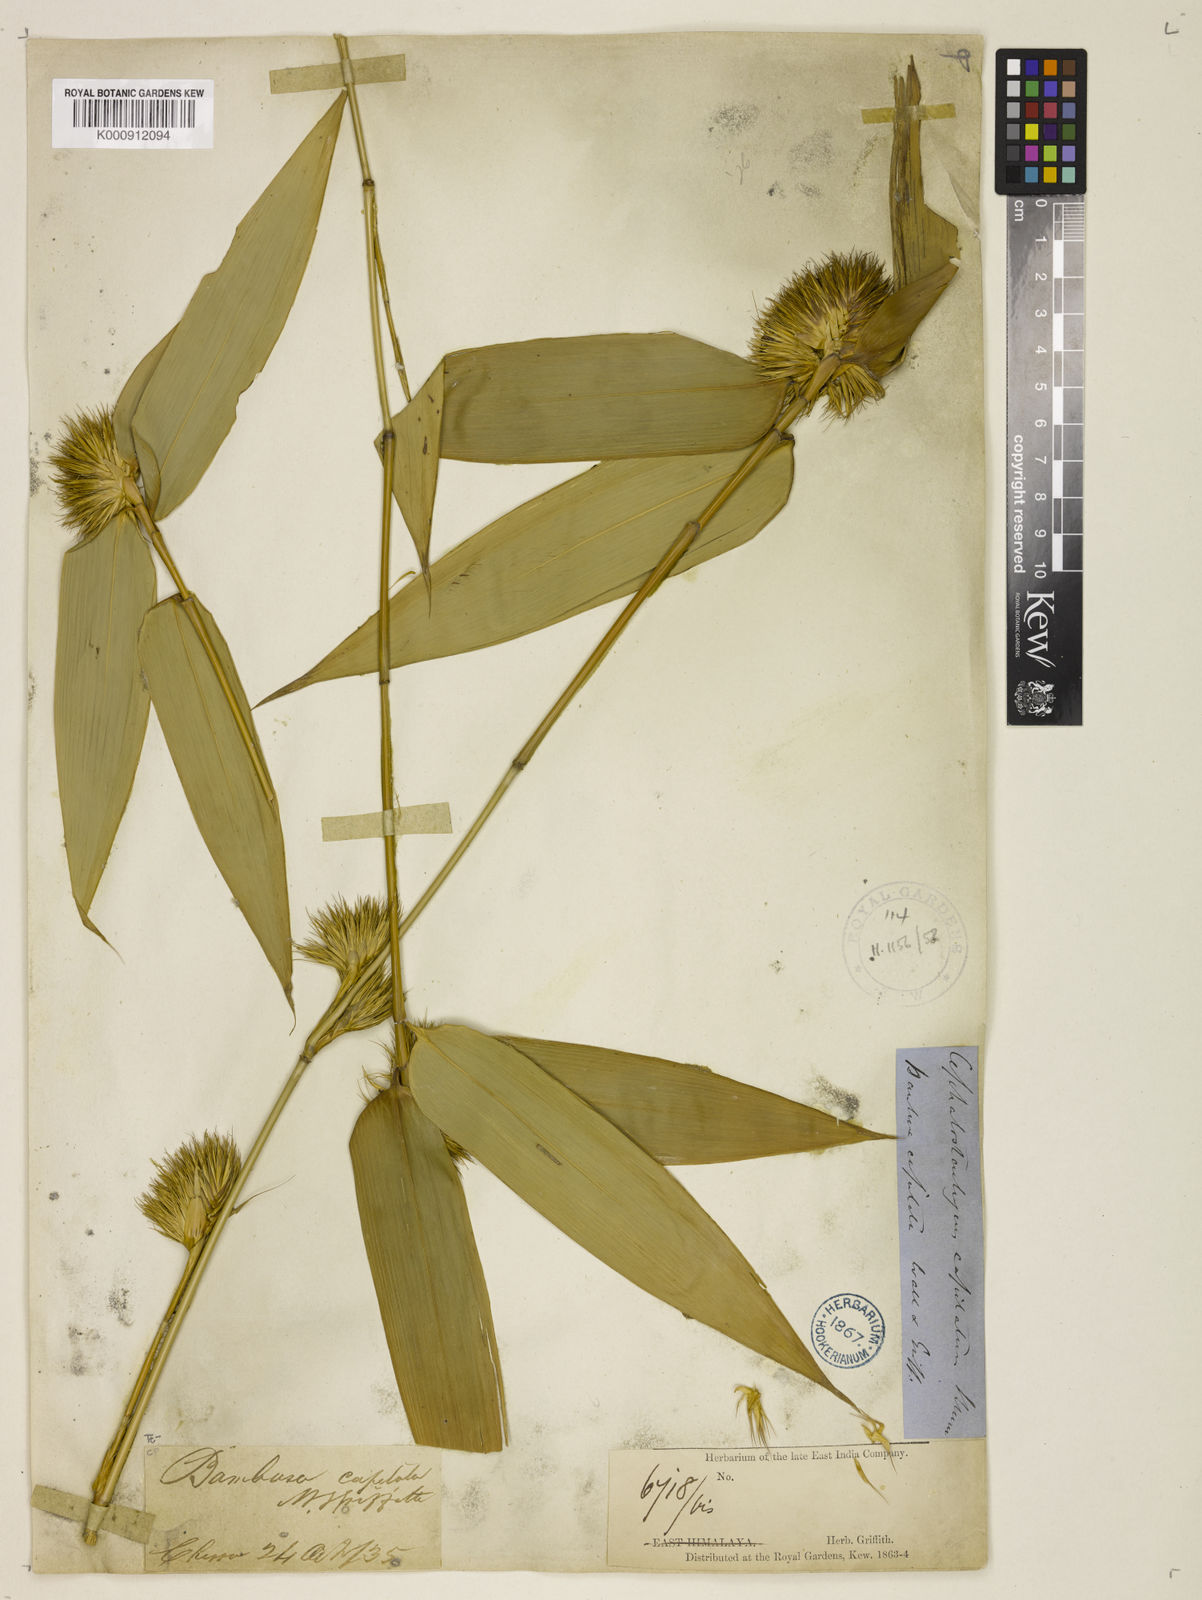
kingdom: Plantae
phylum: Tracheophyta
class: Liliopsida
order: Poales
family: Poaceae
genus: Cephalostachyum
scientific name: Cephalostachyum capitatum
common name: Hollow bamboo
